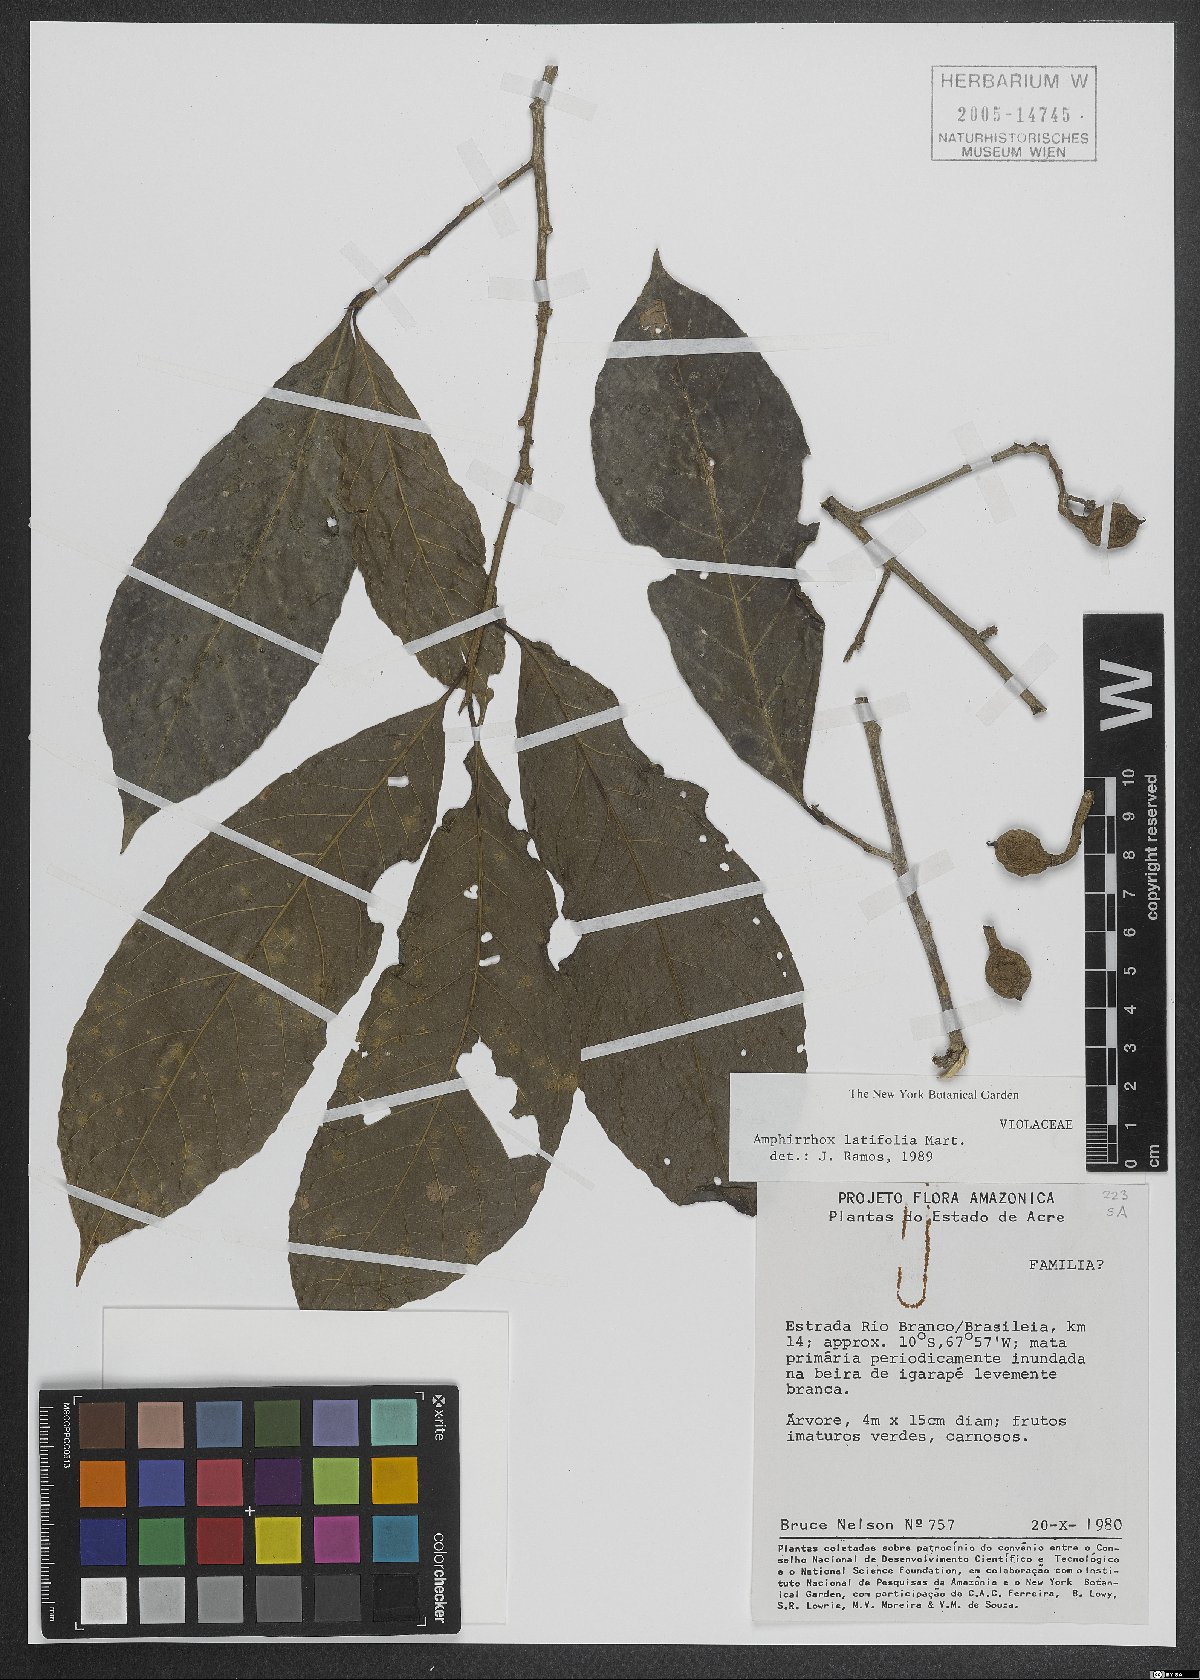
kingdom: Plantae
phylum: Tracheophyta
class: Magnoliopsida
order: Malpighiales
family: Violaceae
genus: Amphirrhox
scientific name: Amphirrhox longifolia
